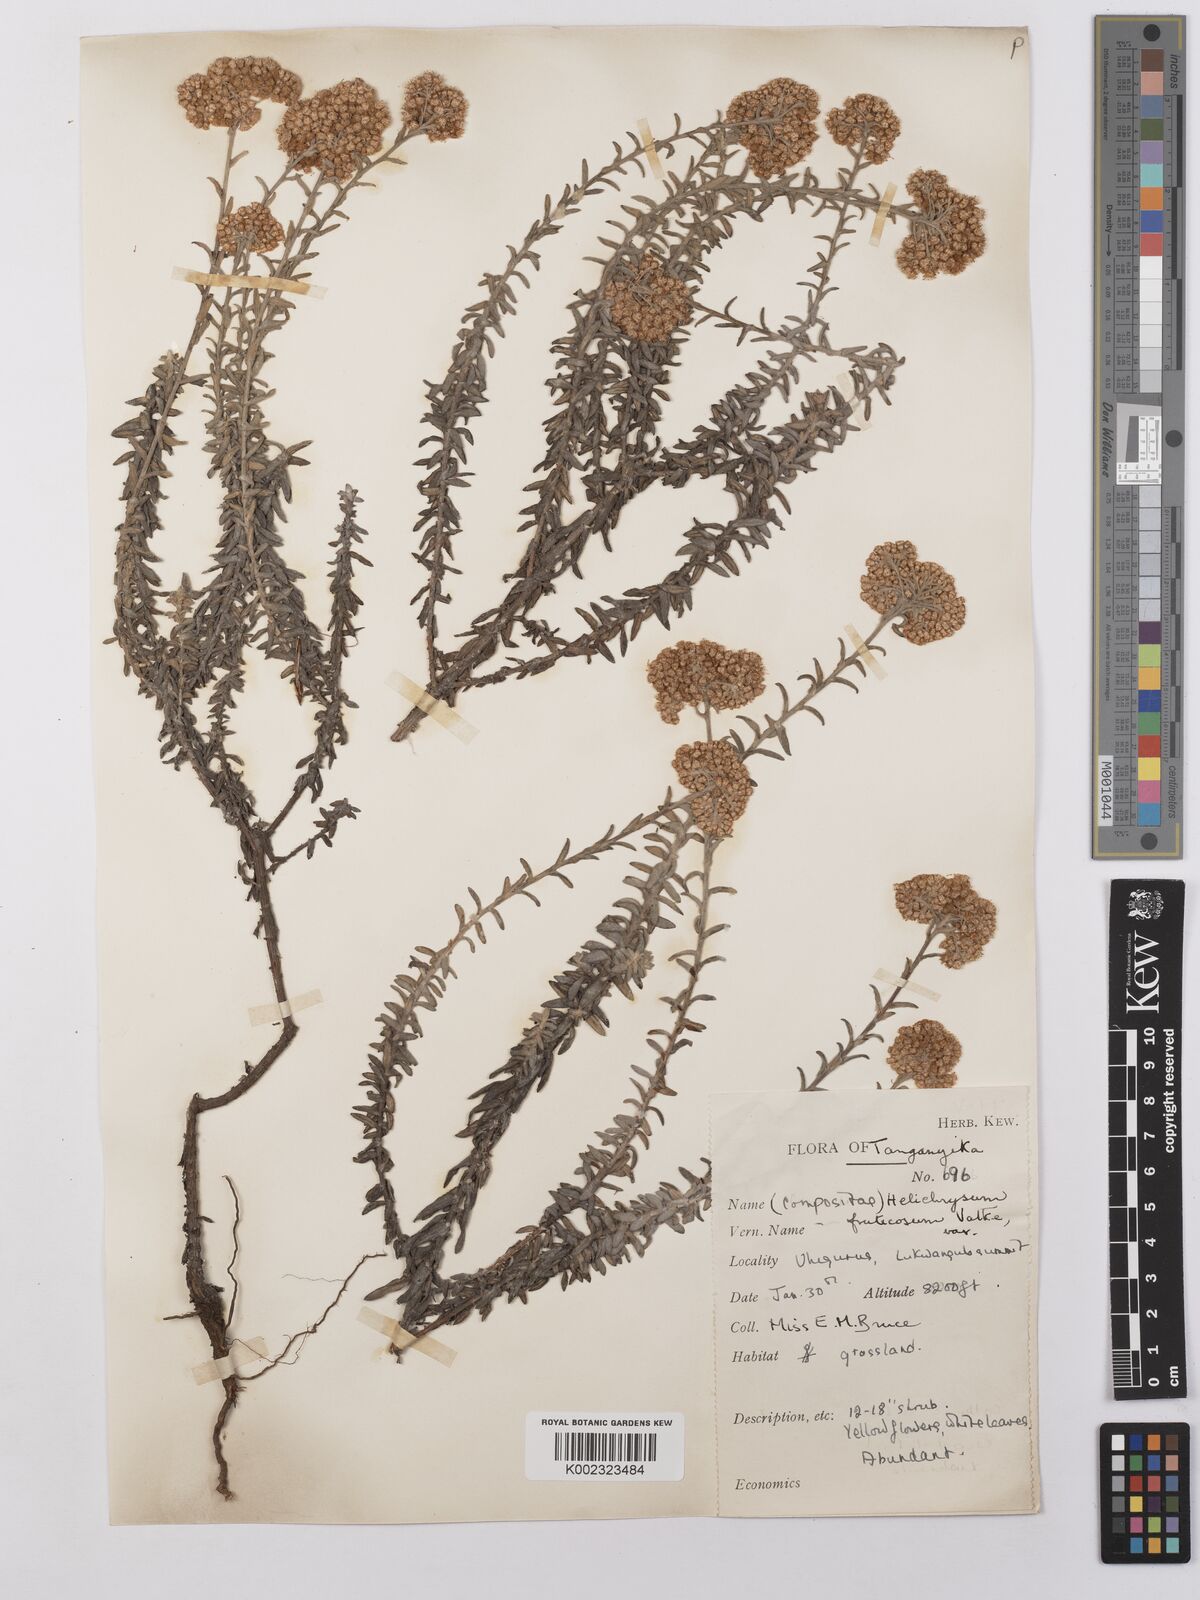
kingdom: Plantae
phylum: Tracheophyta
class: Magnoliopsida
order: Asterales
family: Asteraceae
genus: Helichrysum
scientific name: Helichrysum forskahlii
